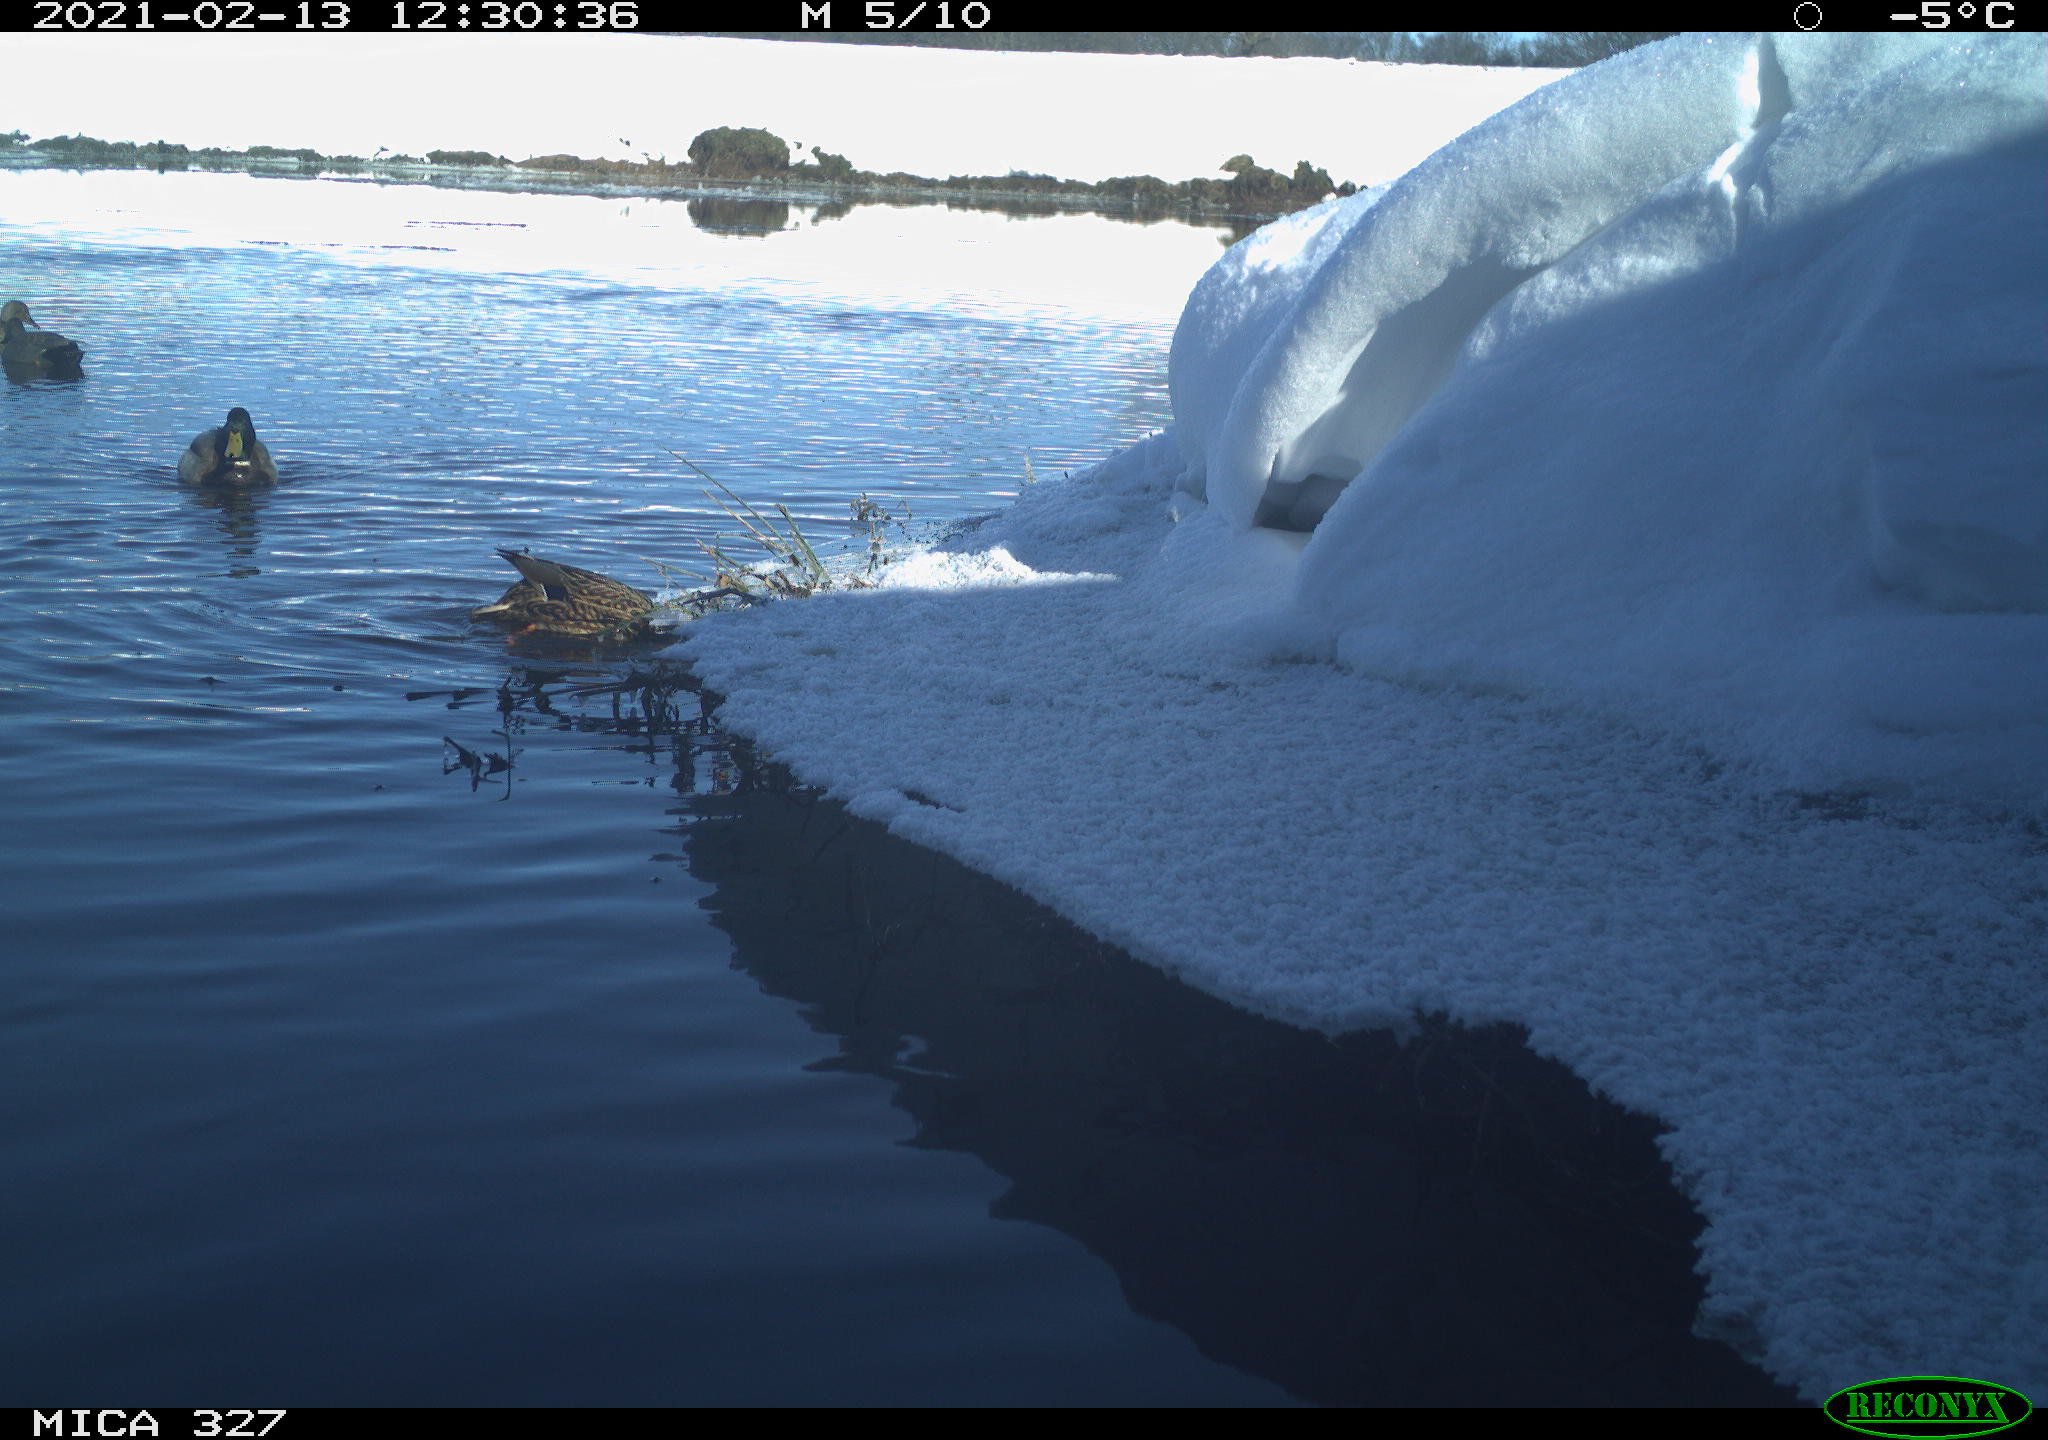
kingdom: Animalia
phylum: Chordata
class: Aves
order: Anseriformes
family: Anatidae
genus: Anas
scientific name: Anas platyrhynchos
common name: Mallard
